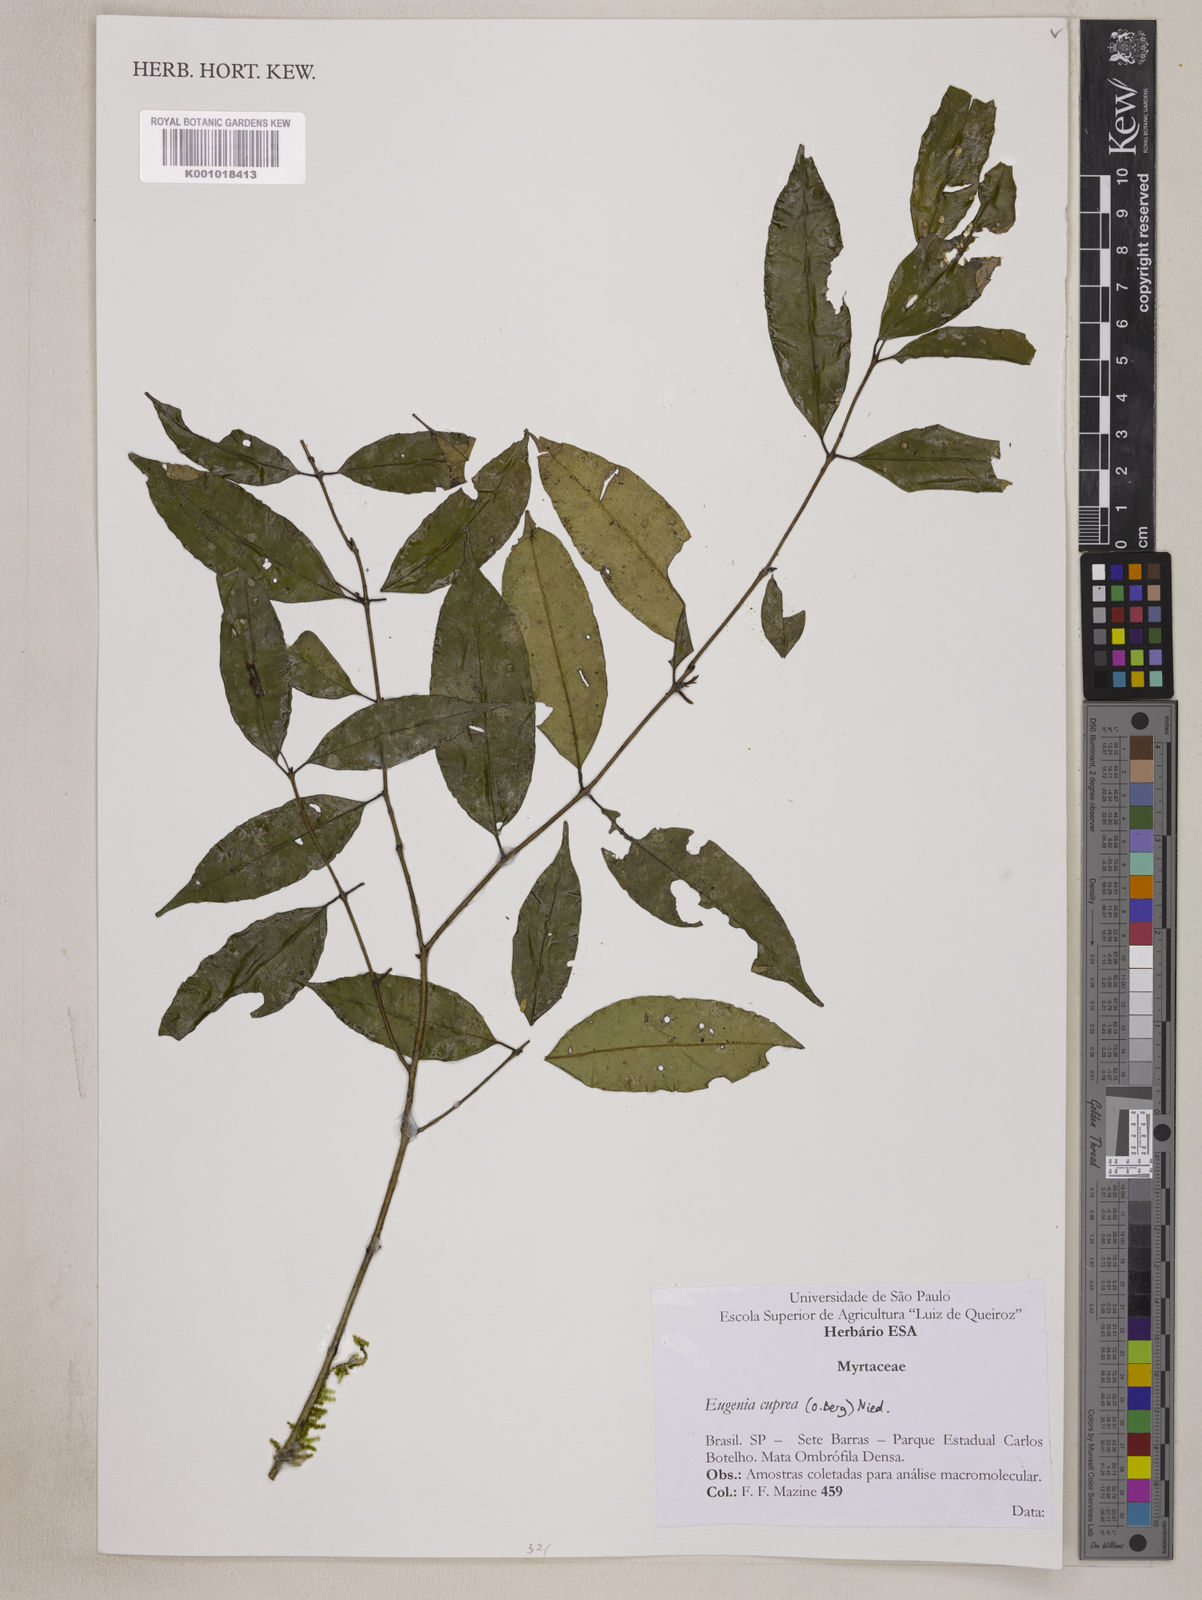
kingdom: Plantae
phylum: Tracheophyta
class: Magnoliopsida
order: Myrtales
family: Myrtaceae
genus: Eugenia
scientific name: Eugenia cuprea
